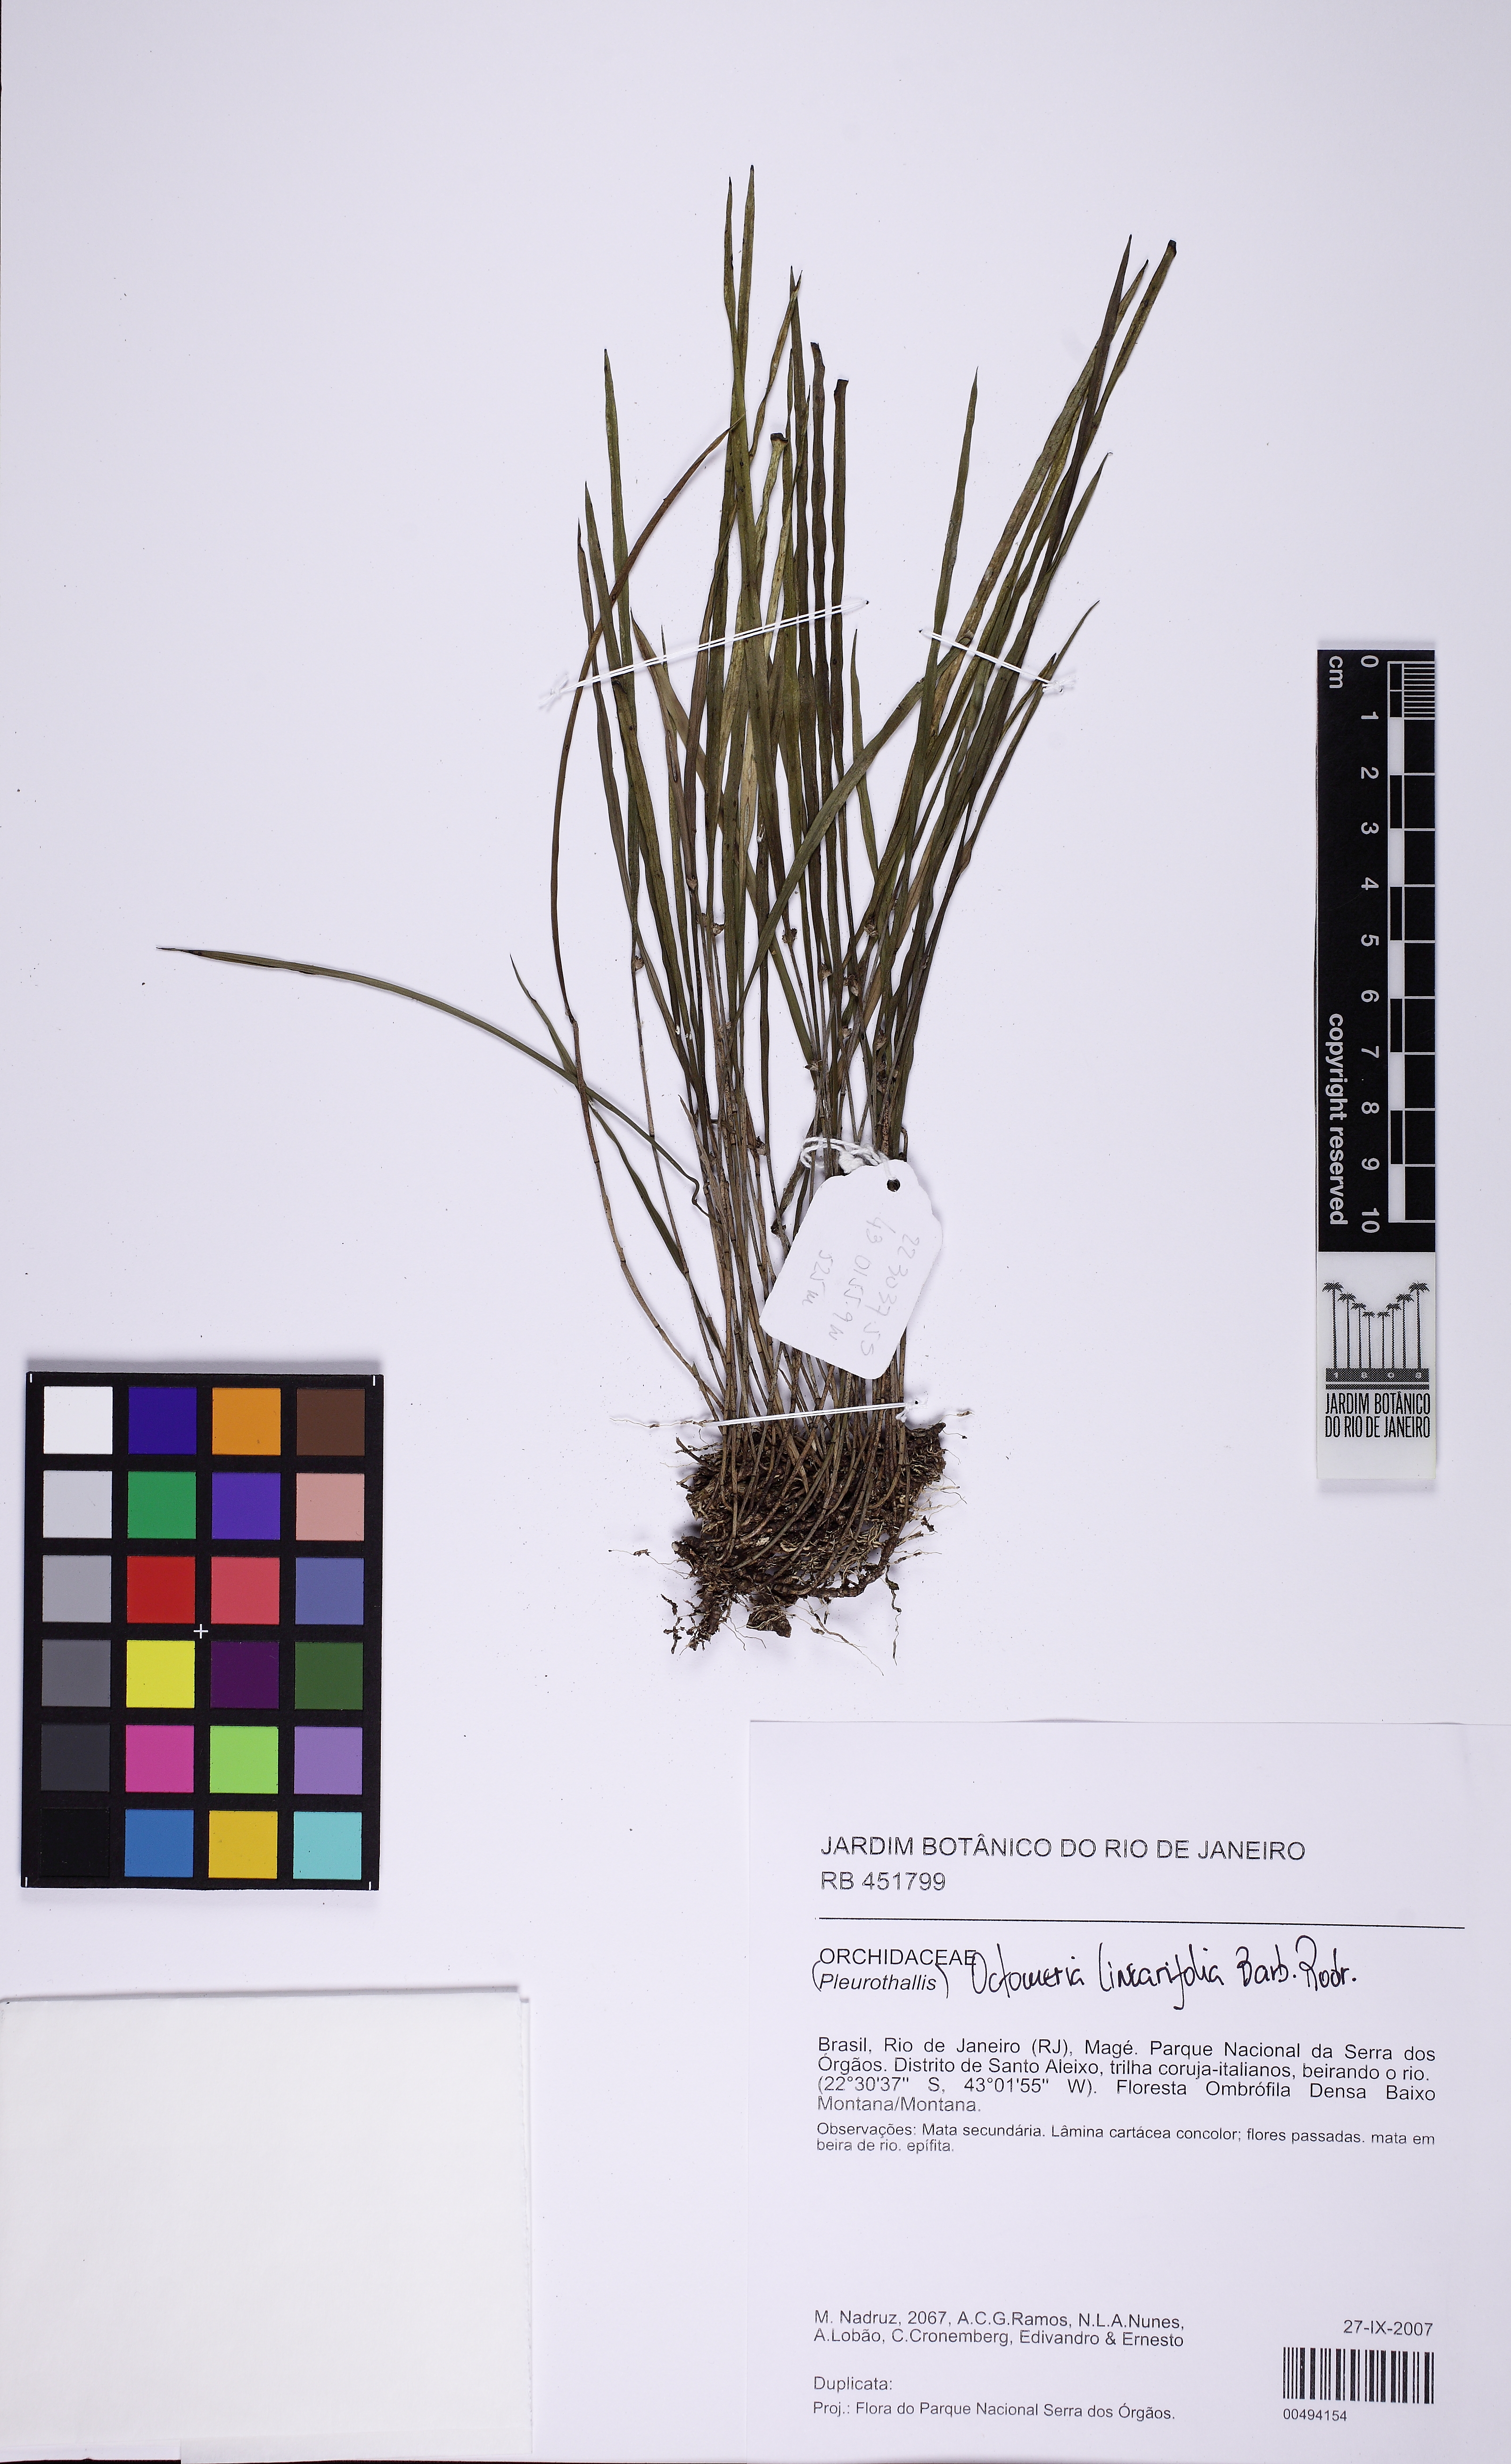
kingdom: Plantae
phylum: Tracheophyta
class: Liliopsida
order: Asparagales
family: Orchidaceae
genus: Octomeria
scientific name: Octomeria linearifolia
